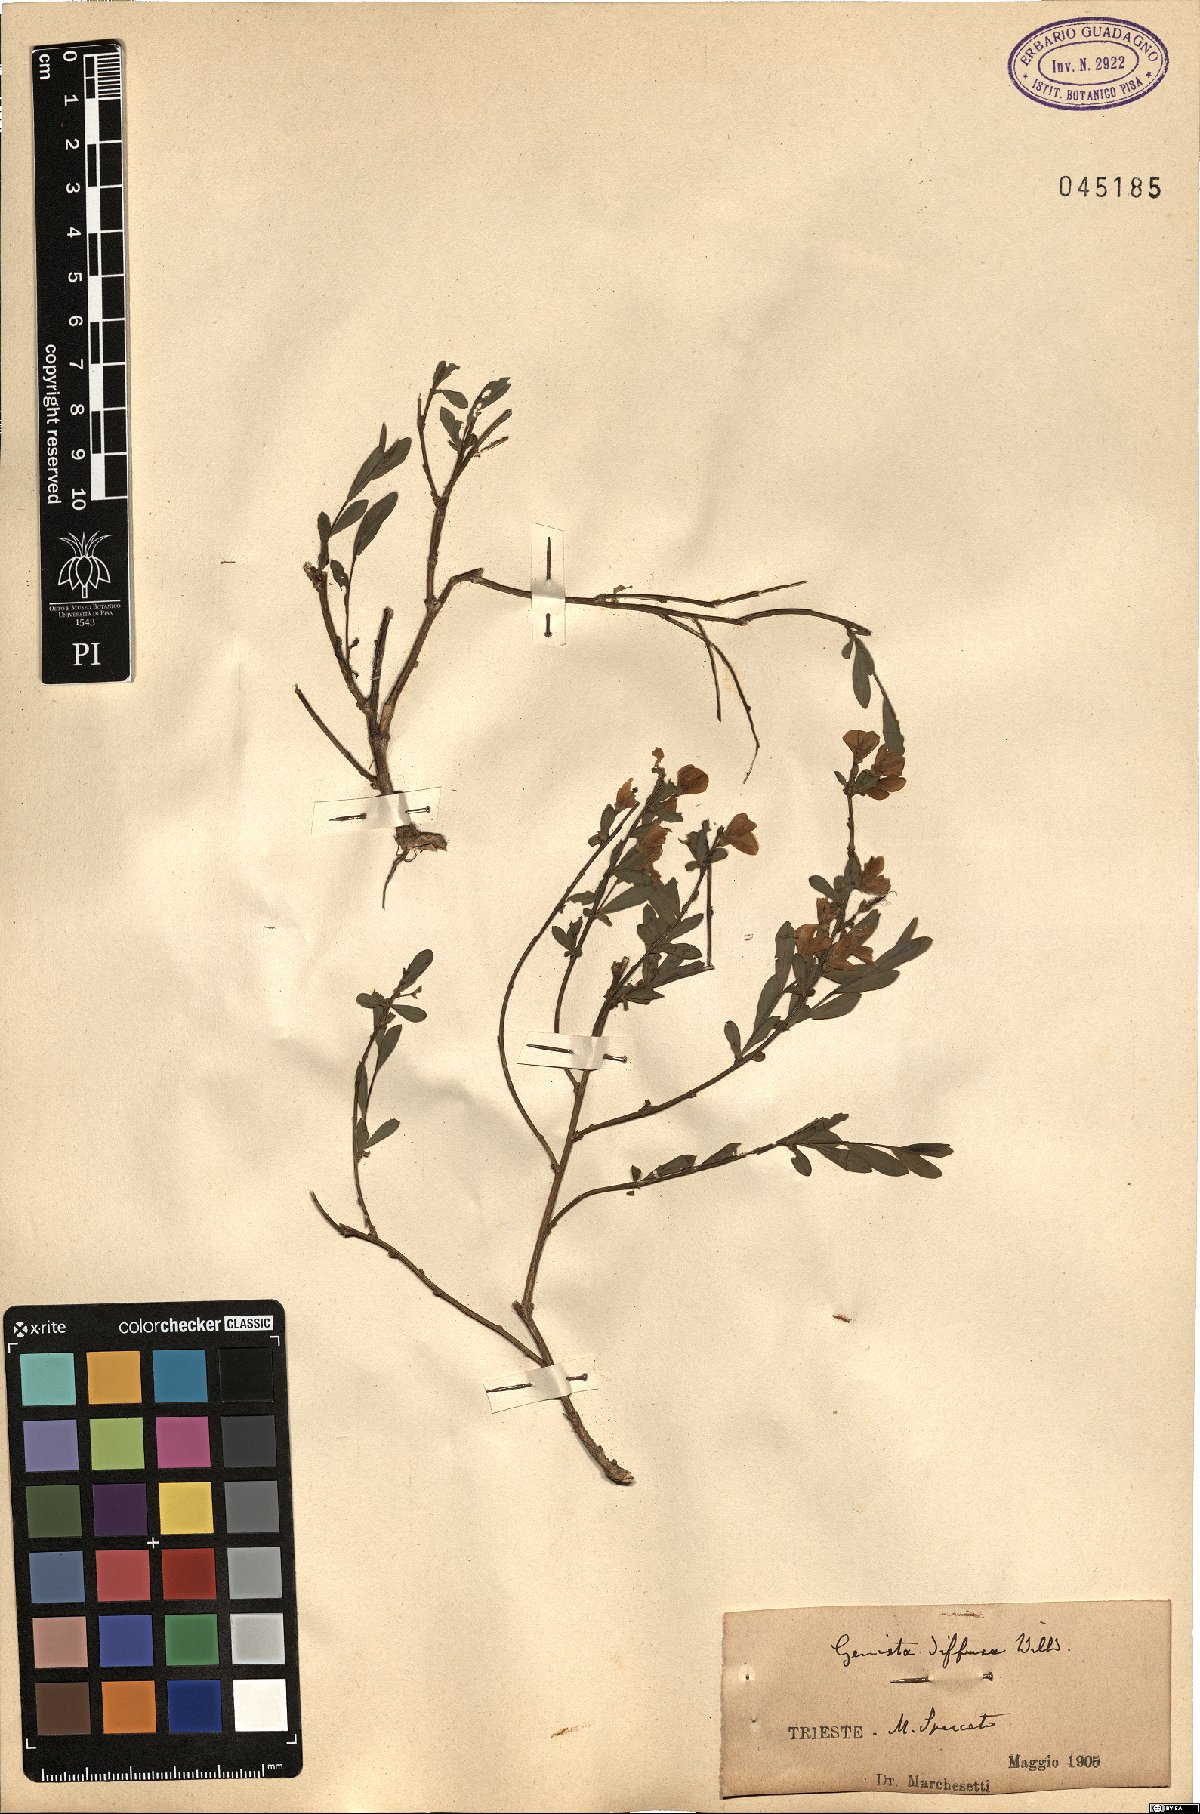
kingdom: Plantae
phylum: Tracheophyta
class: Magnoliopsida
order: Fabales
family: Fabaceae
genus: Cytisus
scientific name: Cytisus decumbens
